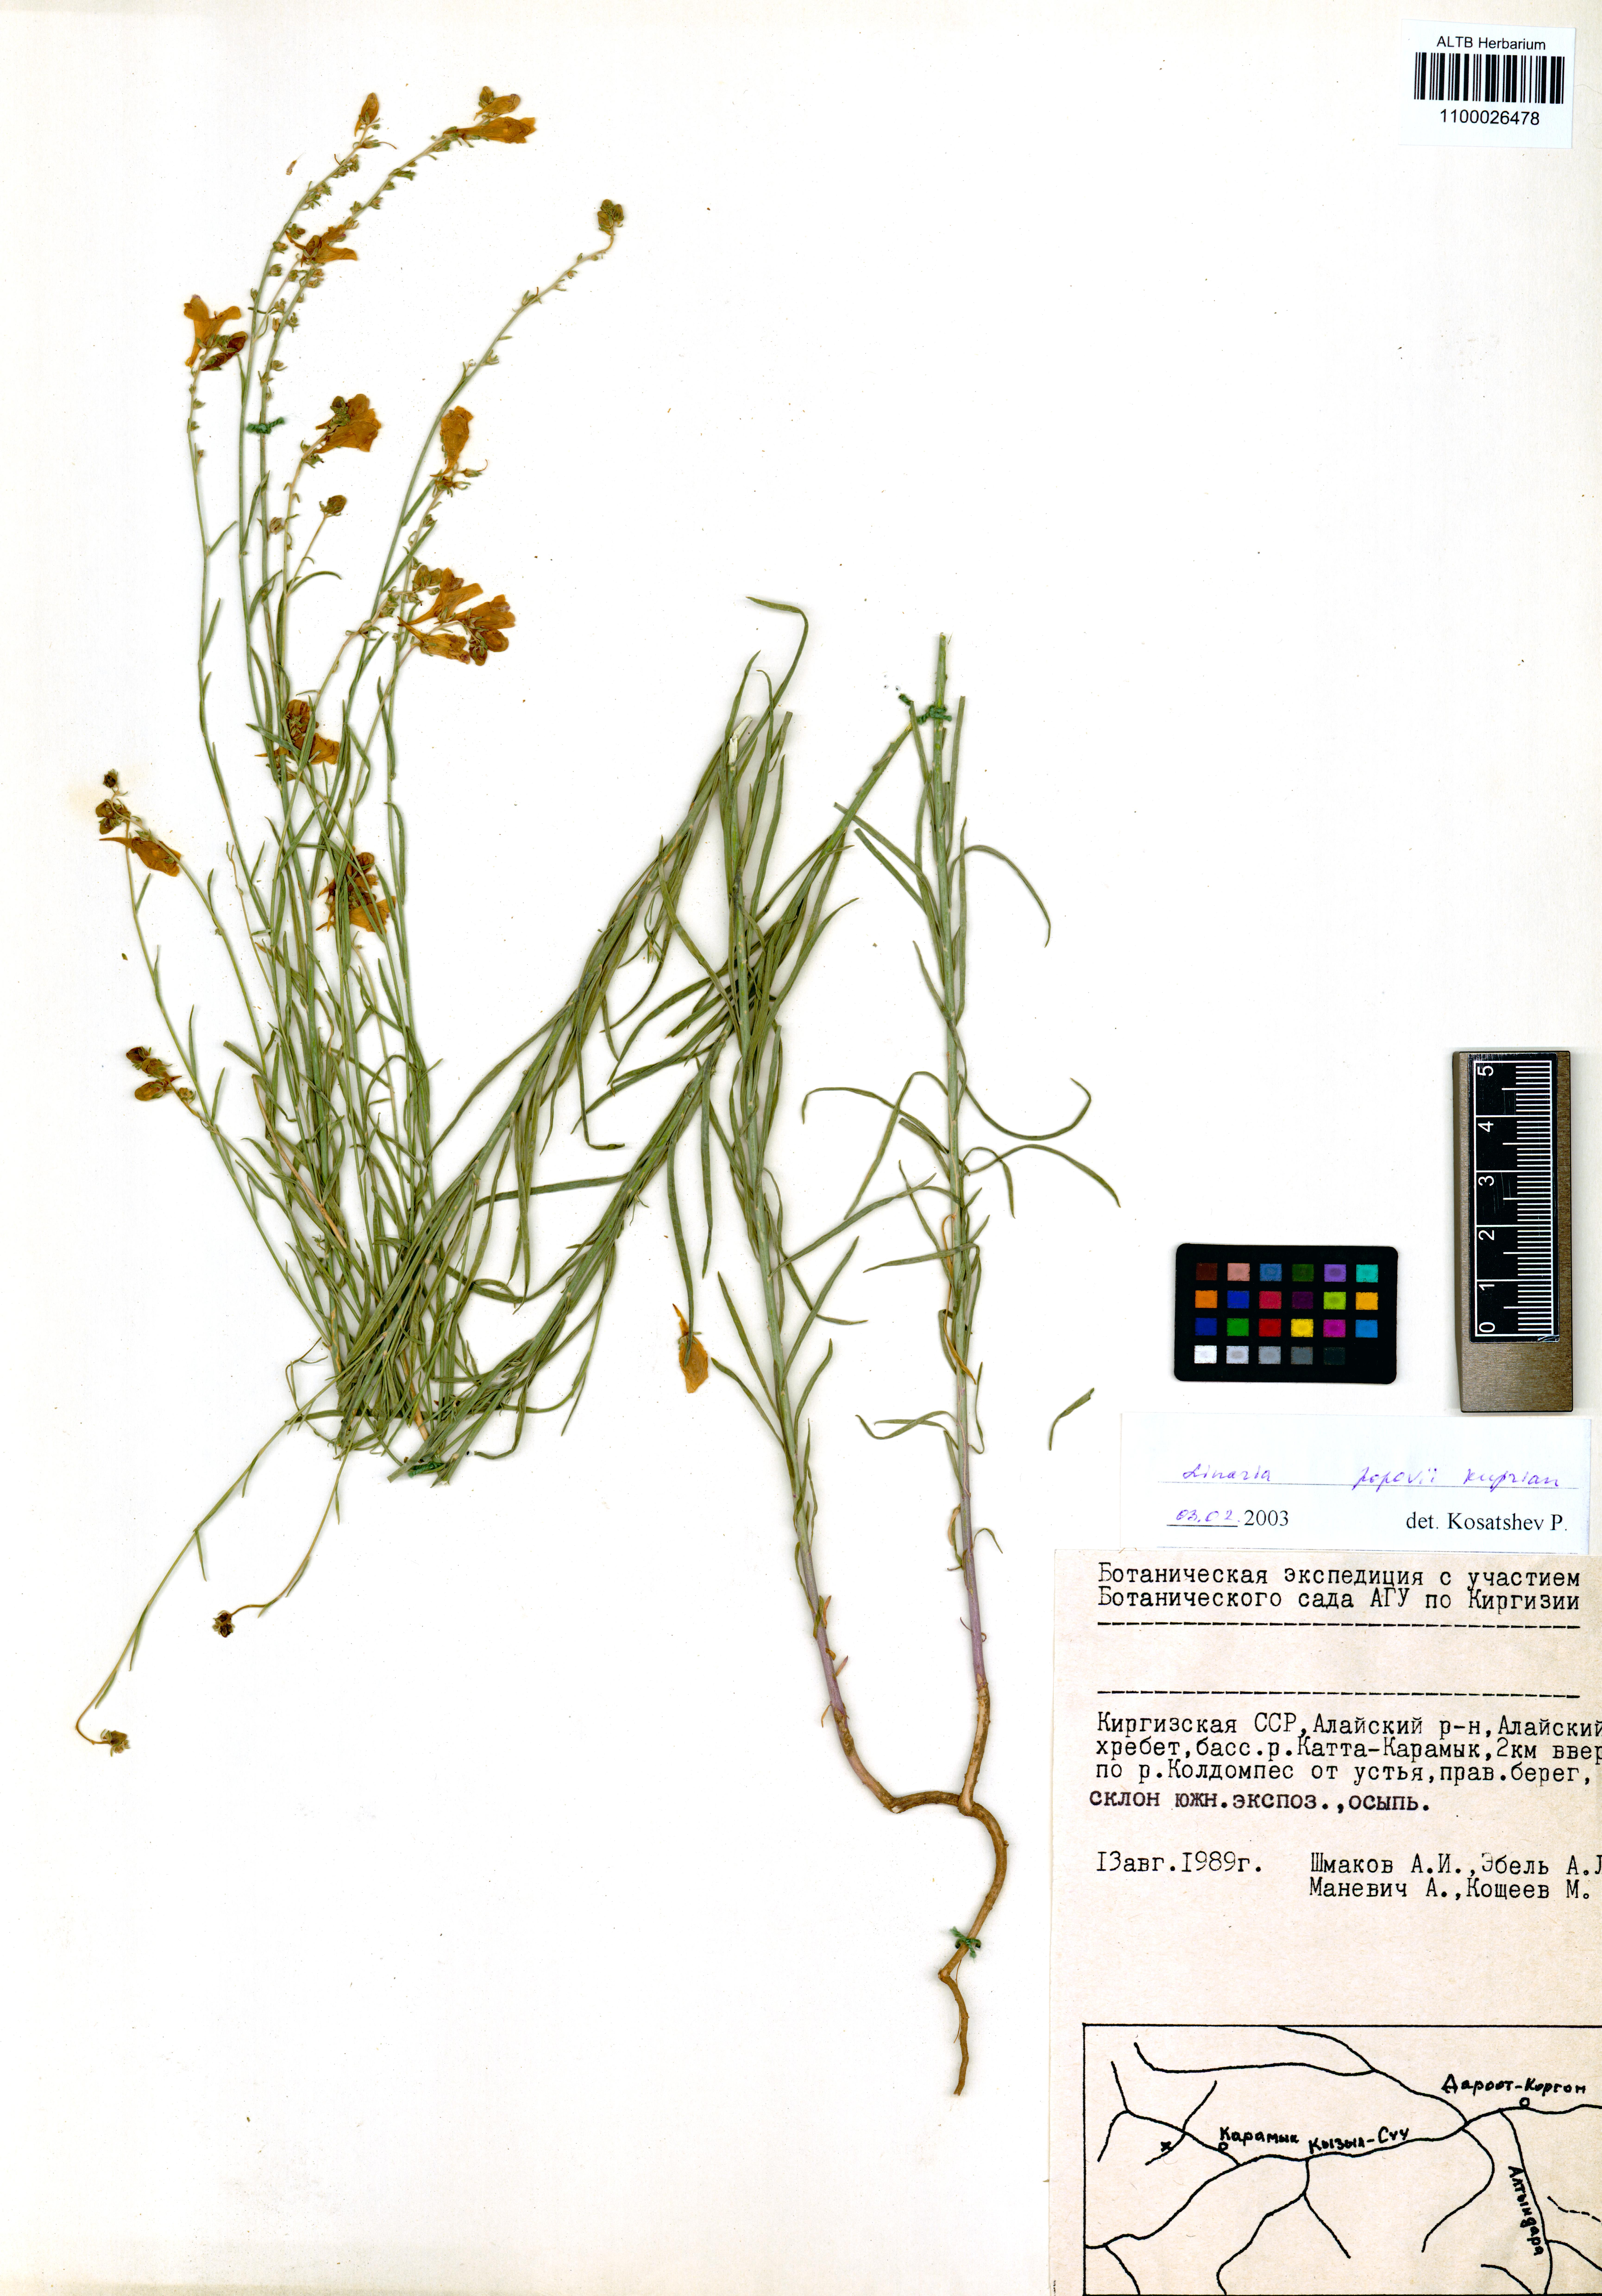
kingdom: Plantae
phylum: Tracheophyta
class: Magnoliopsida
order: Lamiales
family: Plantaginaceae
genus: Linaria
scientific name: Linaria popovii
